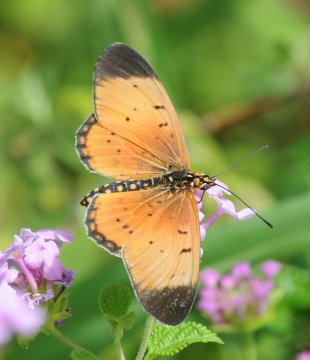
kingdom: Animalia
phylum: Arthropoda
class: Insecta
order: Lepidoptera
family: Nymphalidae
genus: Acraea
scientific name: Acraea
